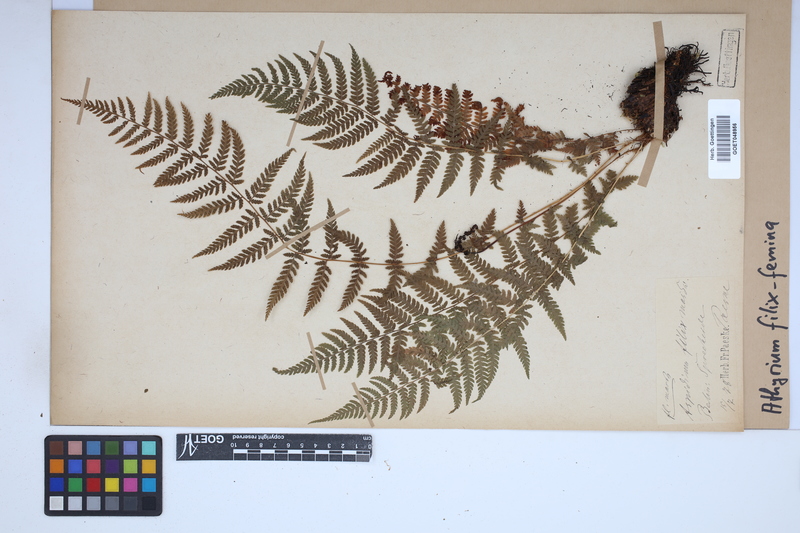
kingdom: Plantae
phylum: Tracheophyta
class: Polypodiopsida
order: Polypodiales
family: Athyriaceae
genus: Athyrium
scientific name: Athyrium filix-femina
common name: Lady fern
